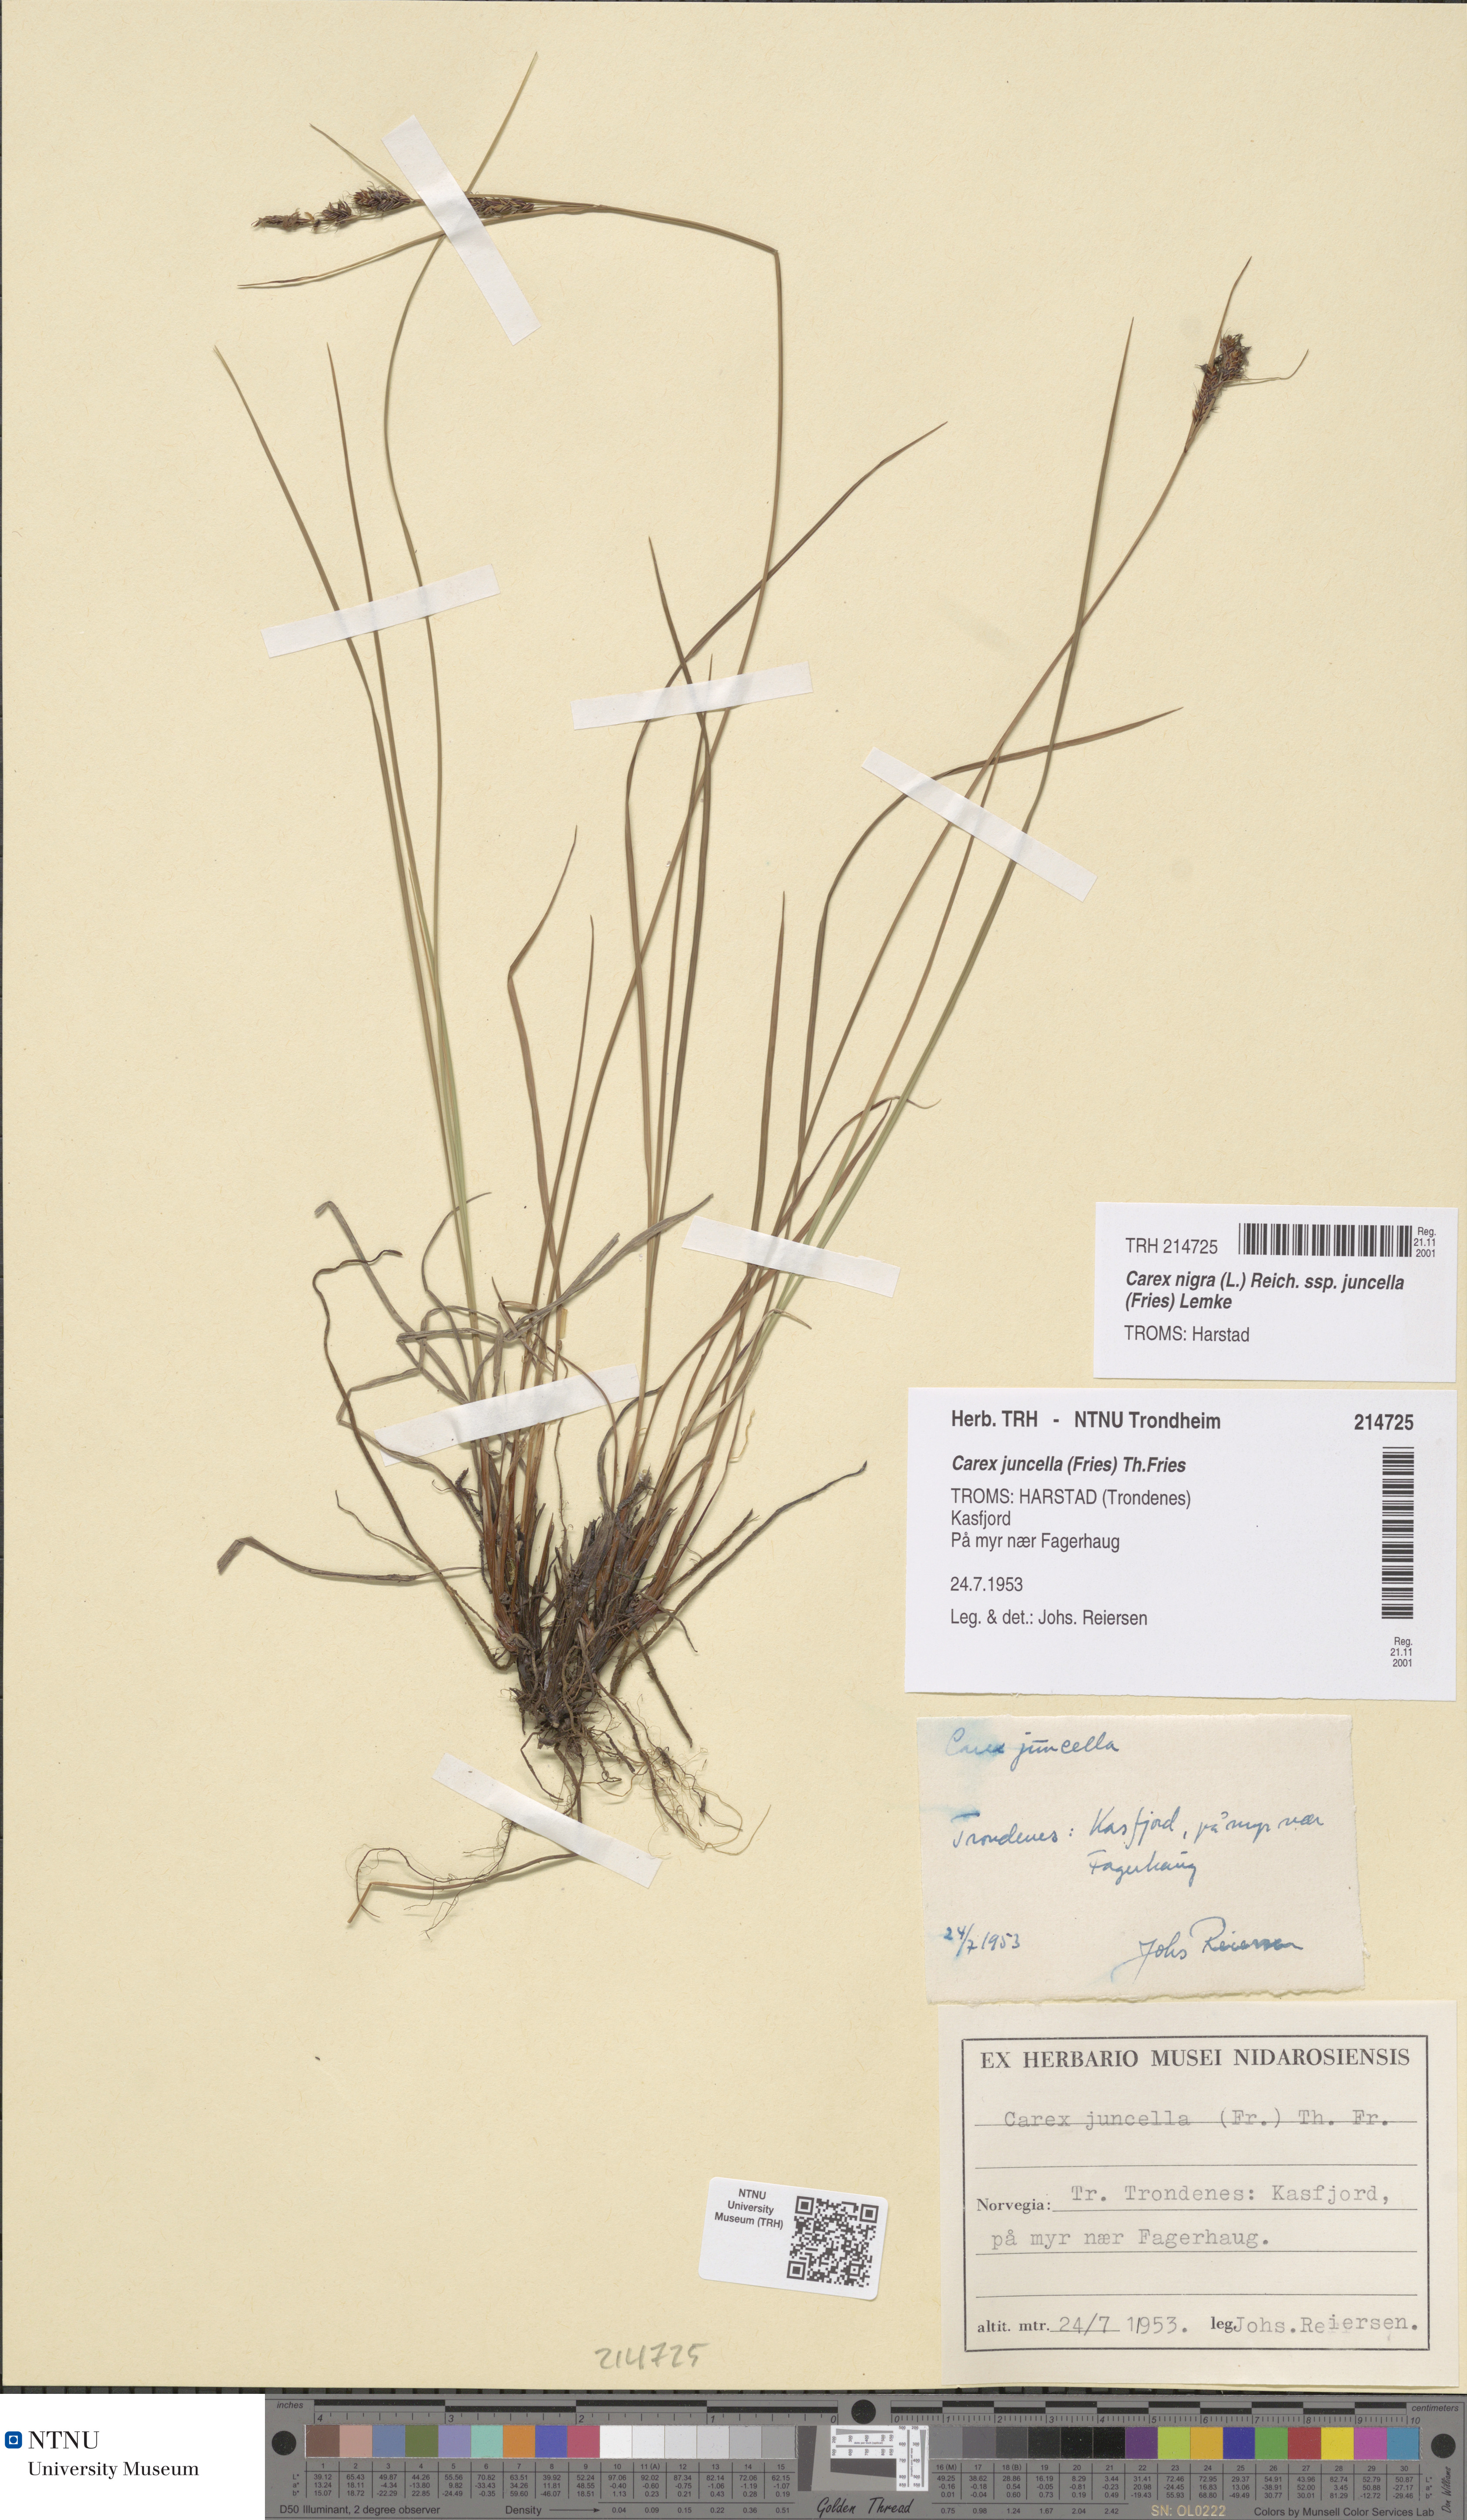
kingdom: Plantae
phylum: Tracheophyta
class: Liliopsida
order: Poales
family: Cyperaceae
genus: Carex
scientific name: Carex nigra
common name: Common sedge
